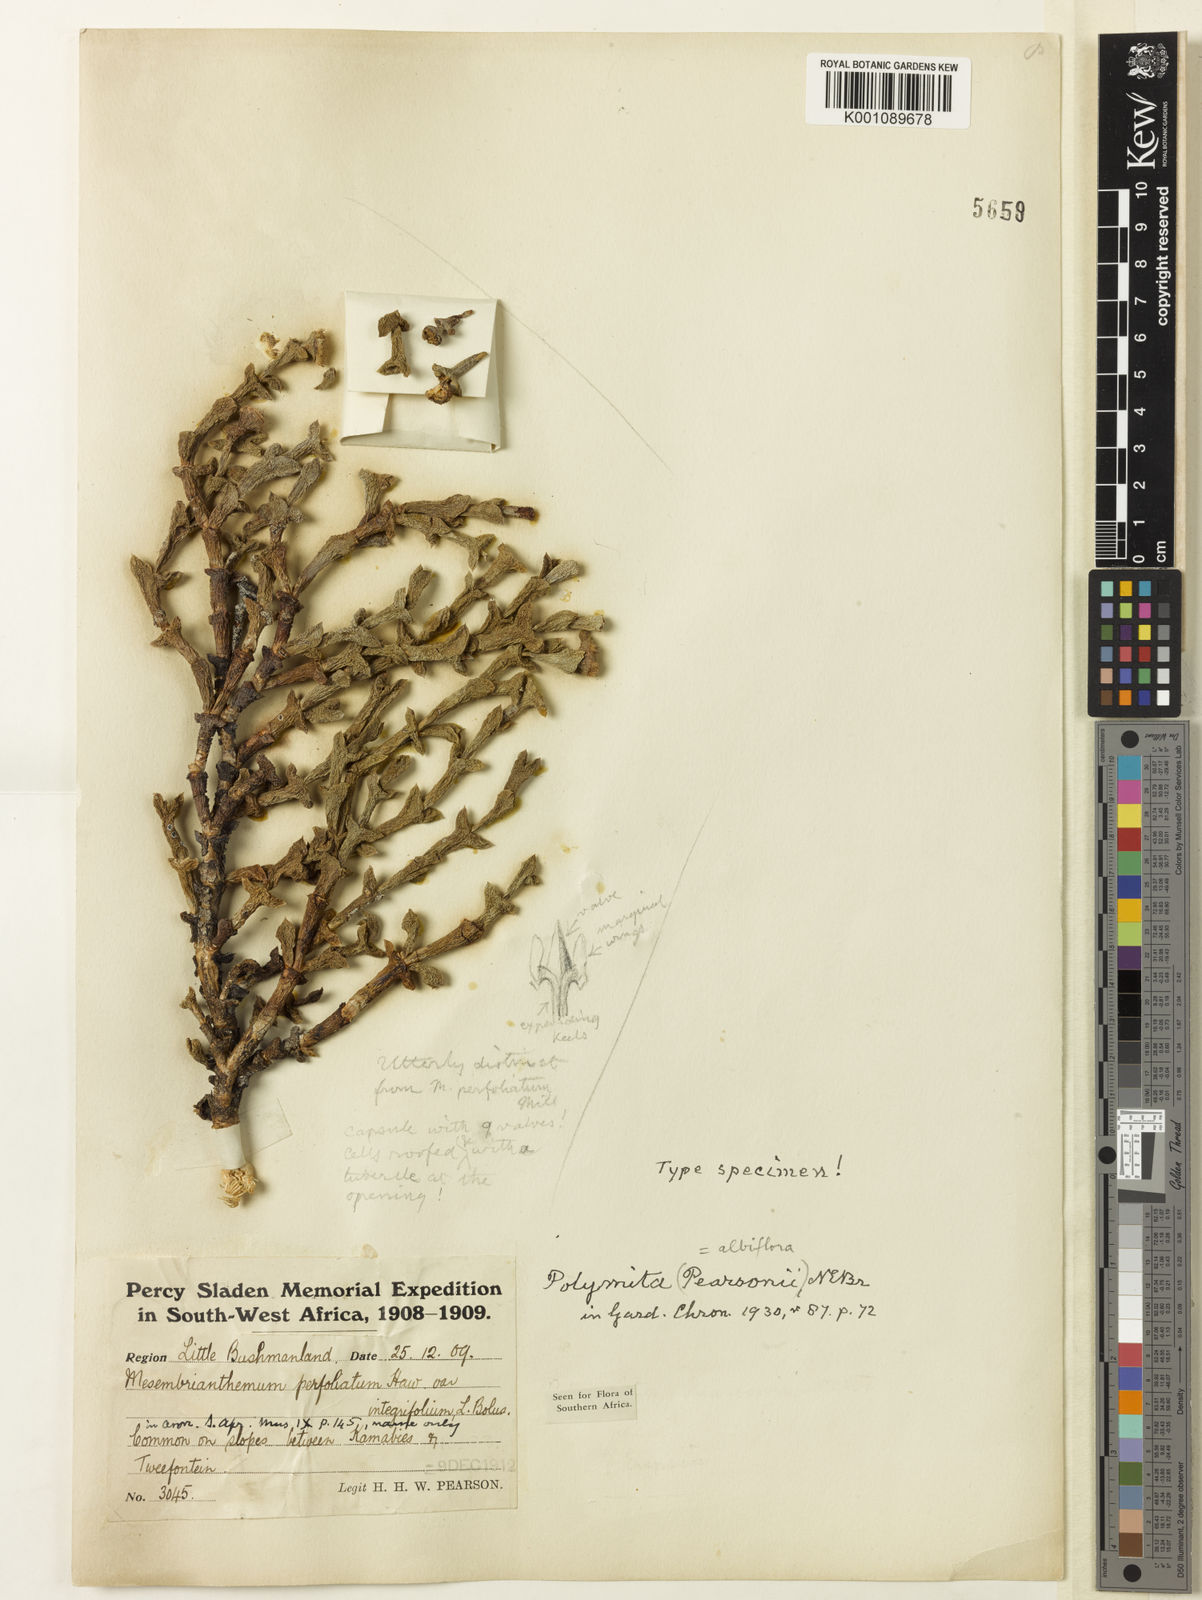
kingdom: Plantae
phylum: Tracheophyta
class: Magnoliopsida
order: Caryophyllales
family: Aizoaceae
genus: Schlechteranthus
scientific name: Schlechteranthus albiflorus
